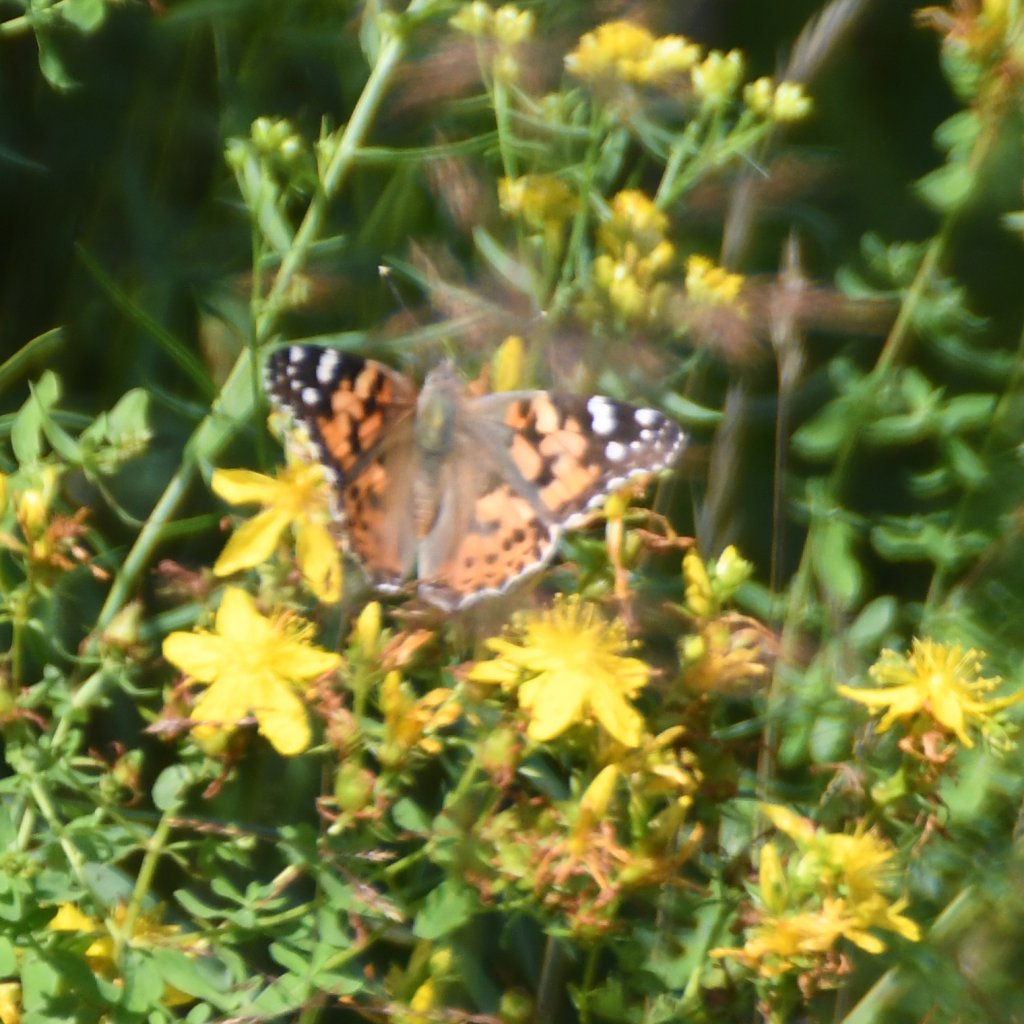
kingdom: Animalia
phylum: Arthropoda
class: Insecta
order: Lepidoptera
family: Nymphalidae
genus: Vanessa
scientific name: Vanessa cardui
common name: Painted Lady
